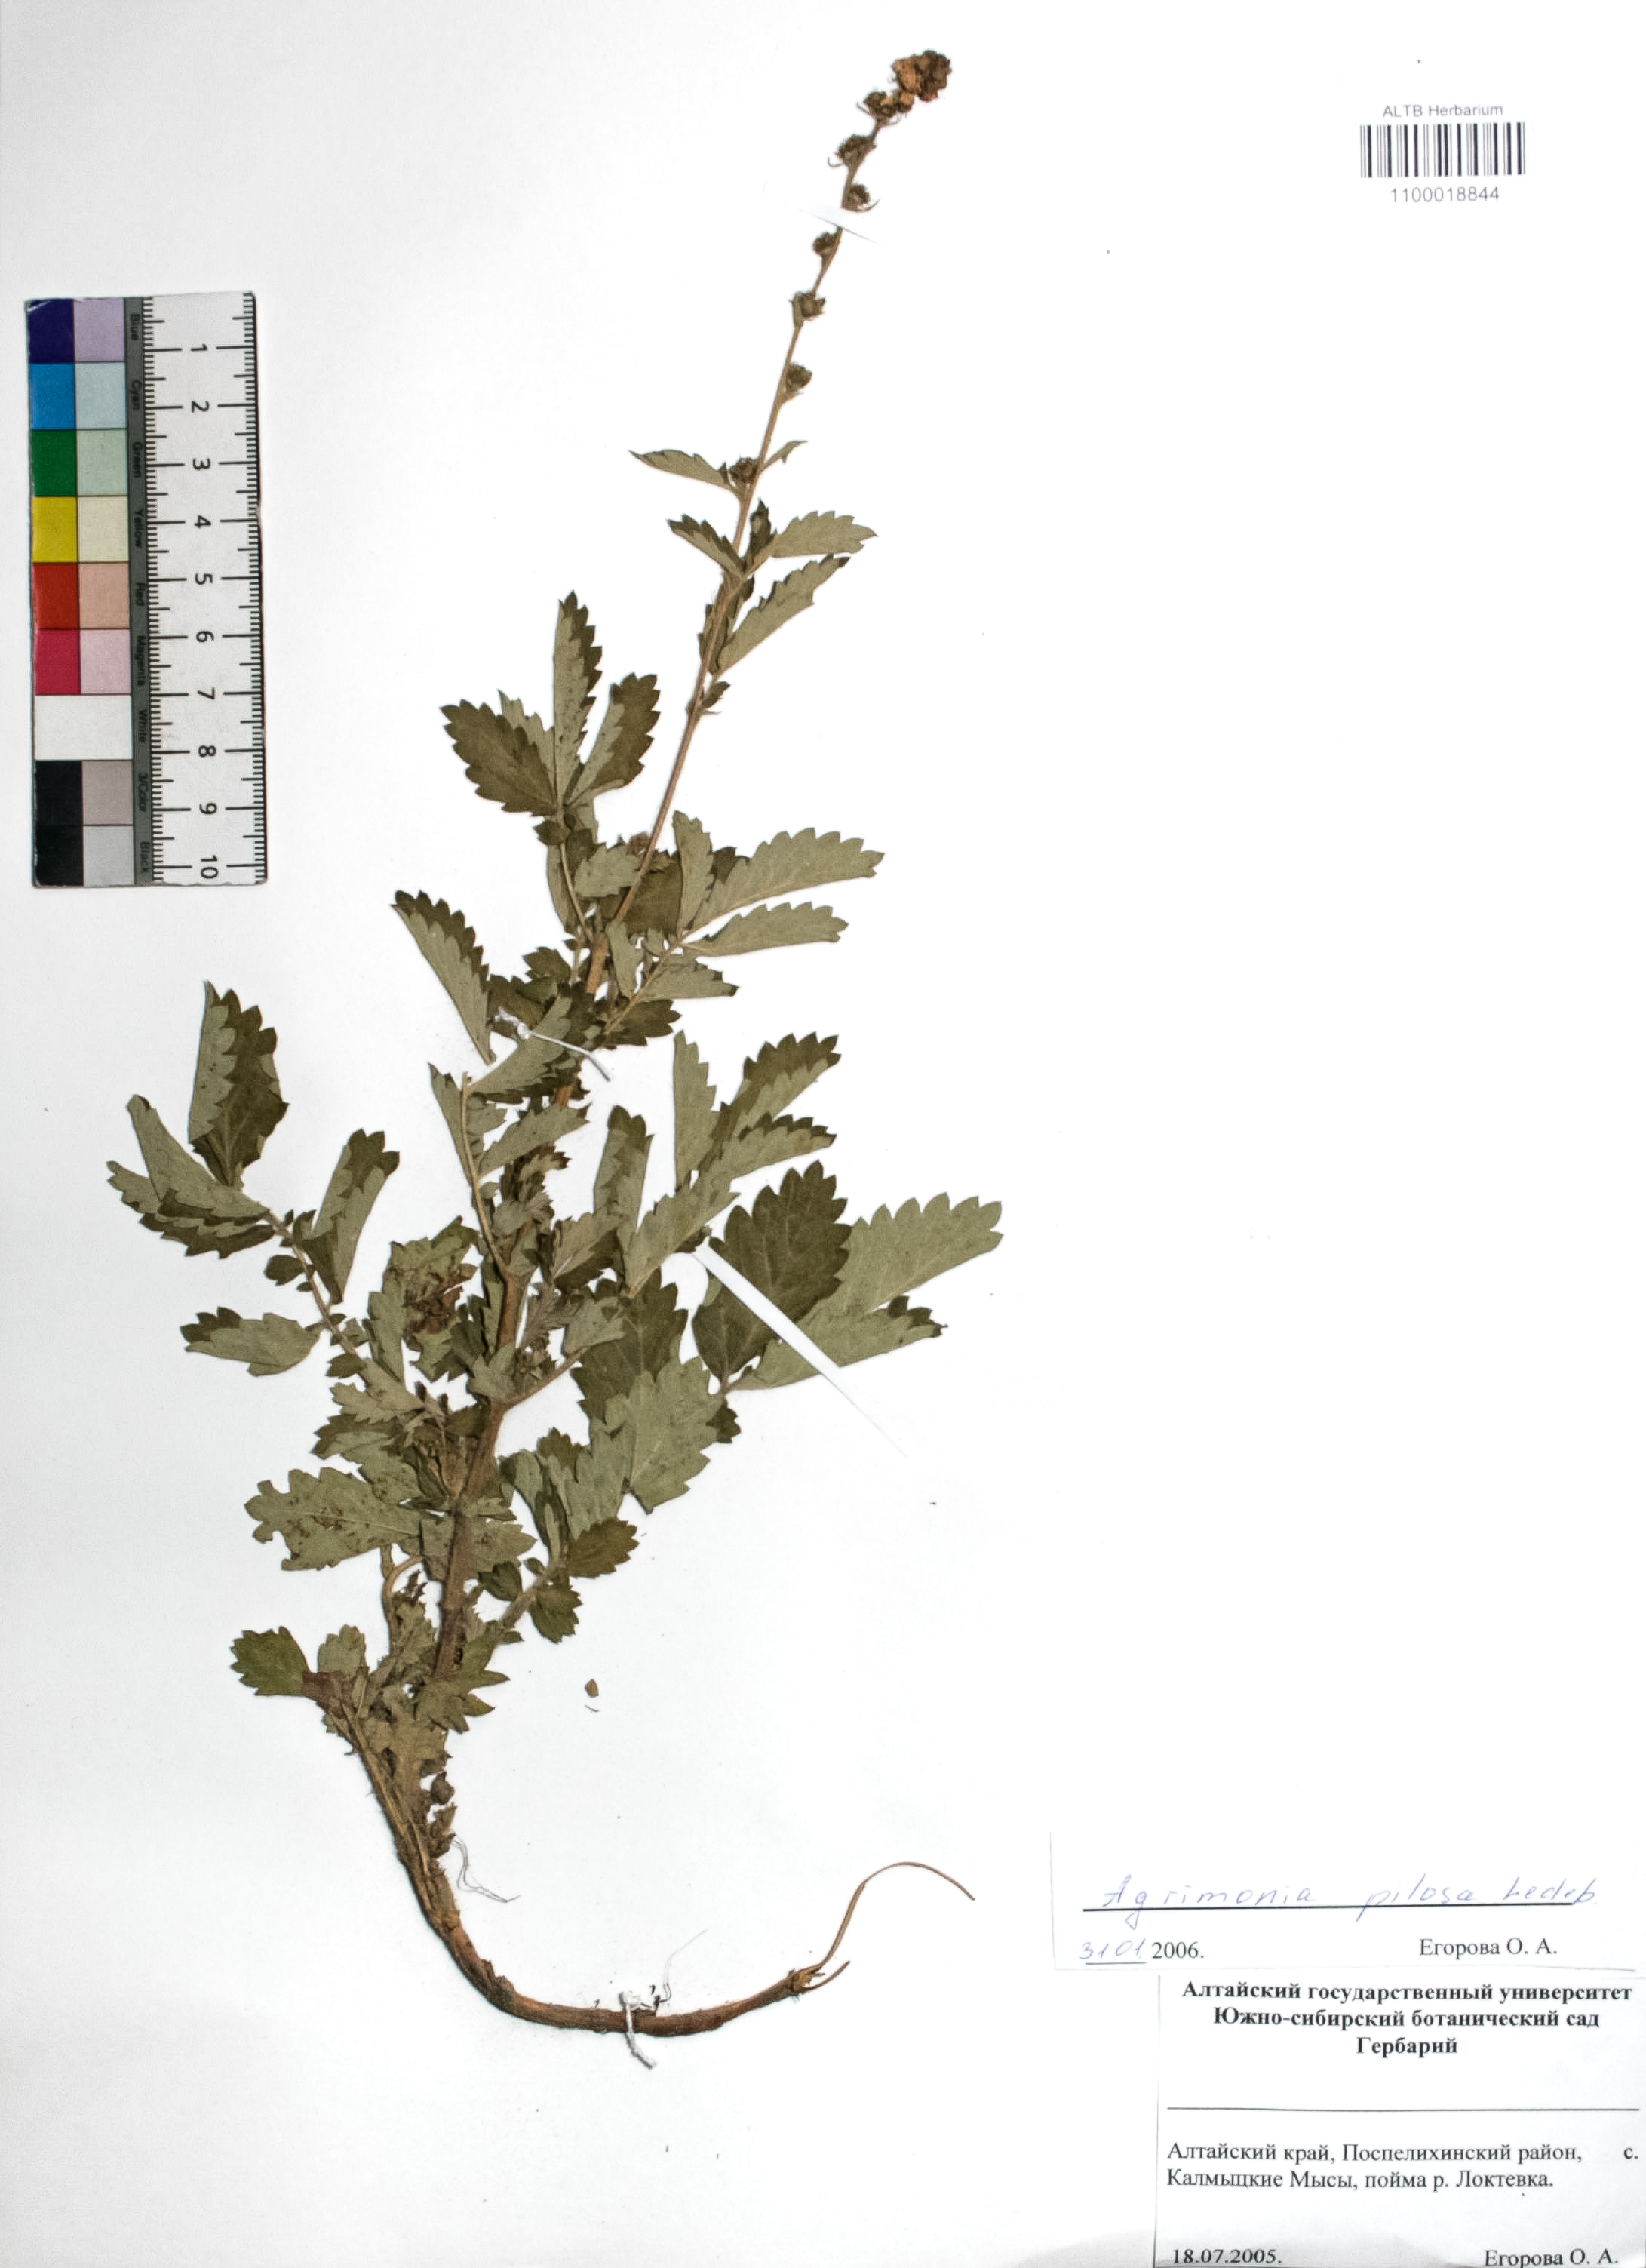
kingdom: Plantae
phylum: Tracheophyta
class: Magnoliopsida
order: Rosales
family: Rosaceae
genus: Agrimonia
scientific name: Agrimonia pilosa
